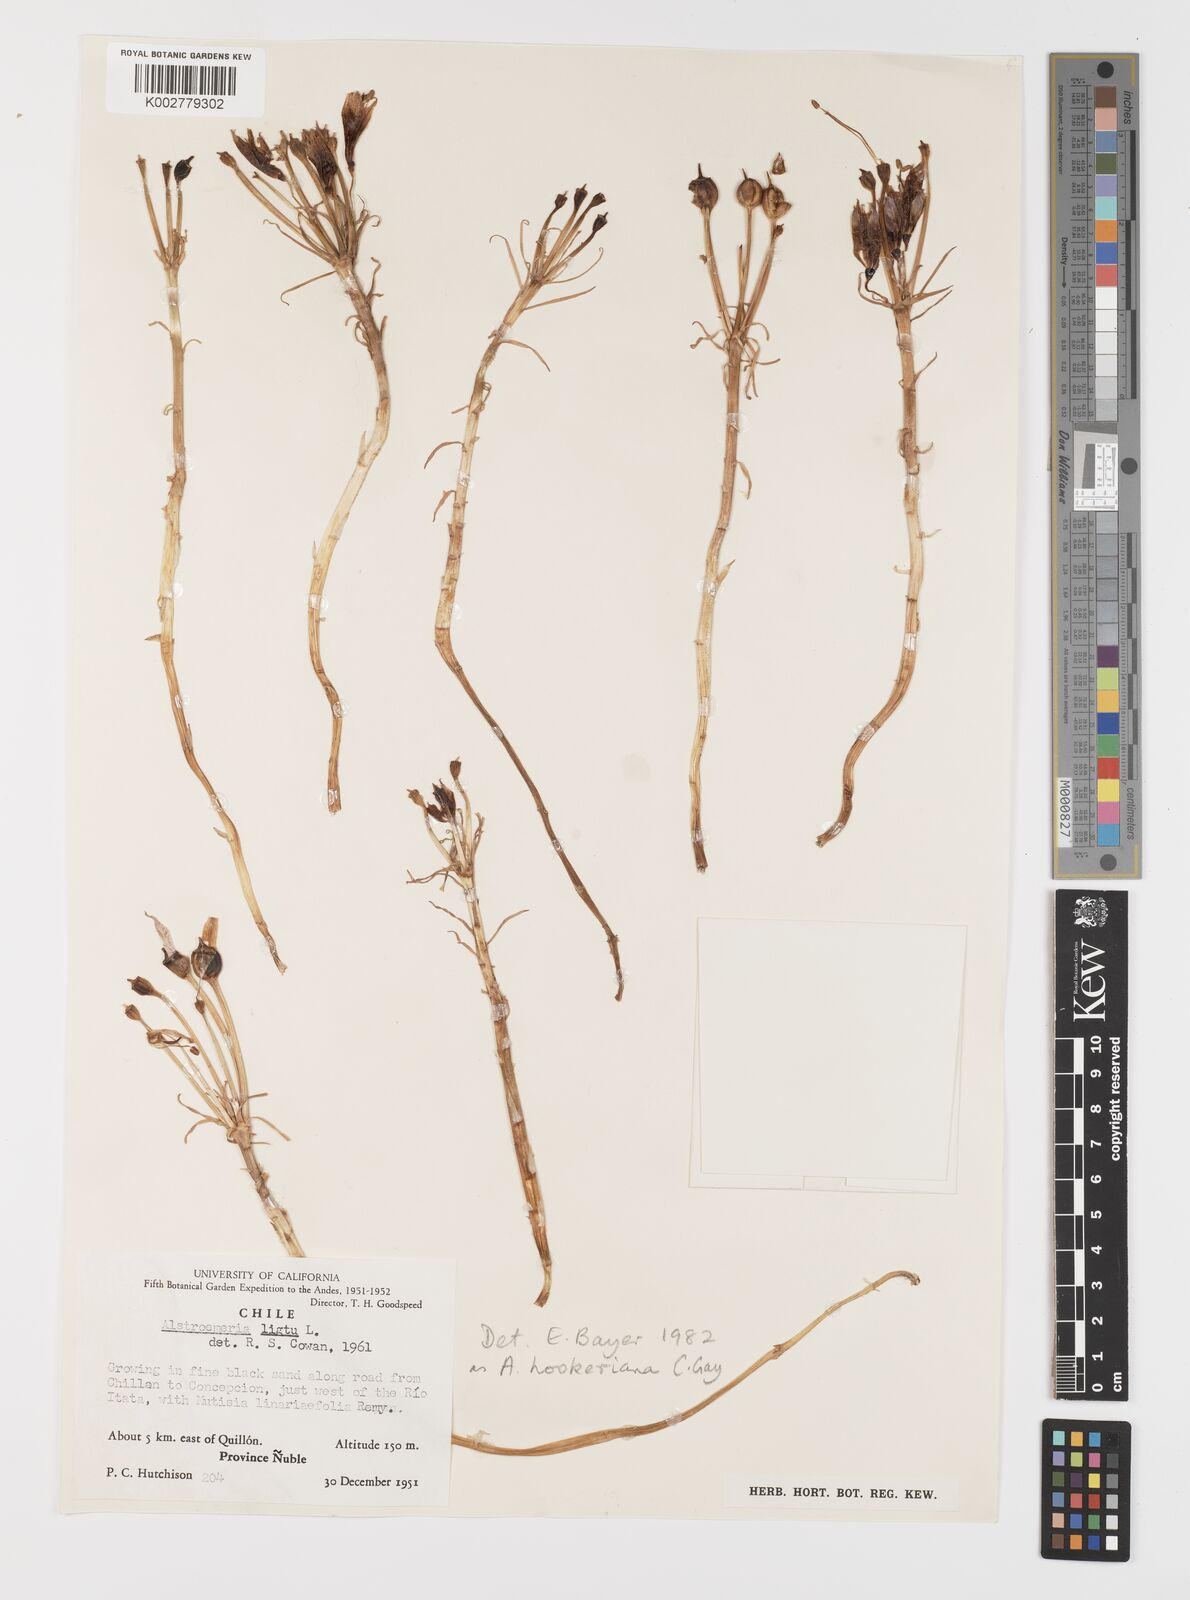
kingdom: Plantae
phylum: Tracheophyta
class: Liliopsida
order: Liliales
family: Alstroemeriaceae
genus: Alstroemeria
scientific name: Alstroemeria ligtu
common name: St. martin's-flower
